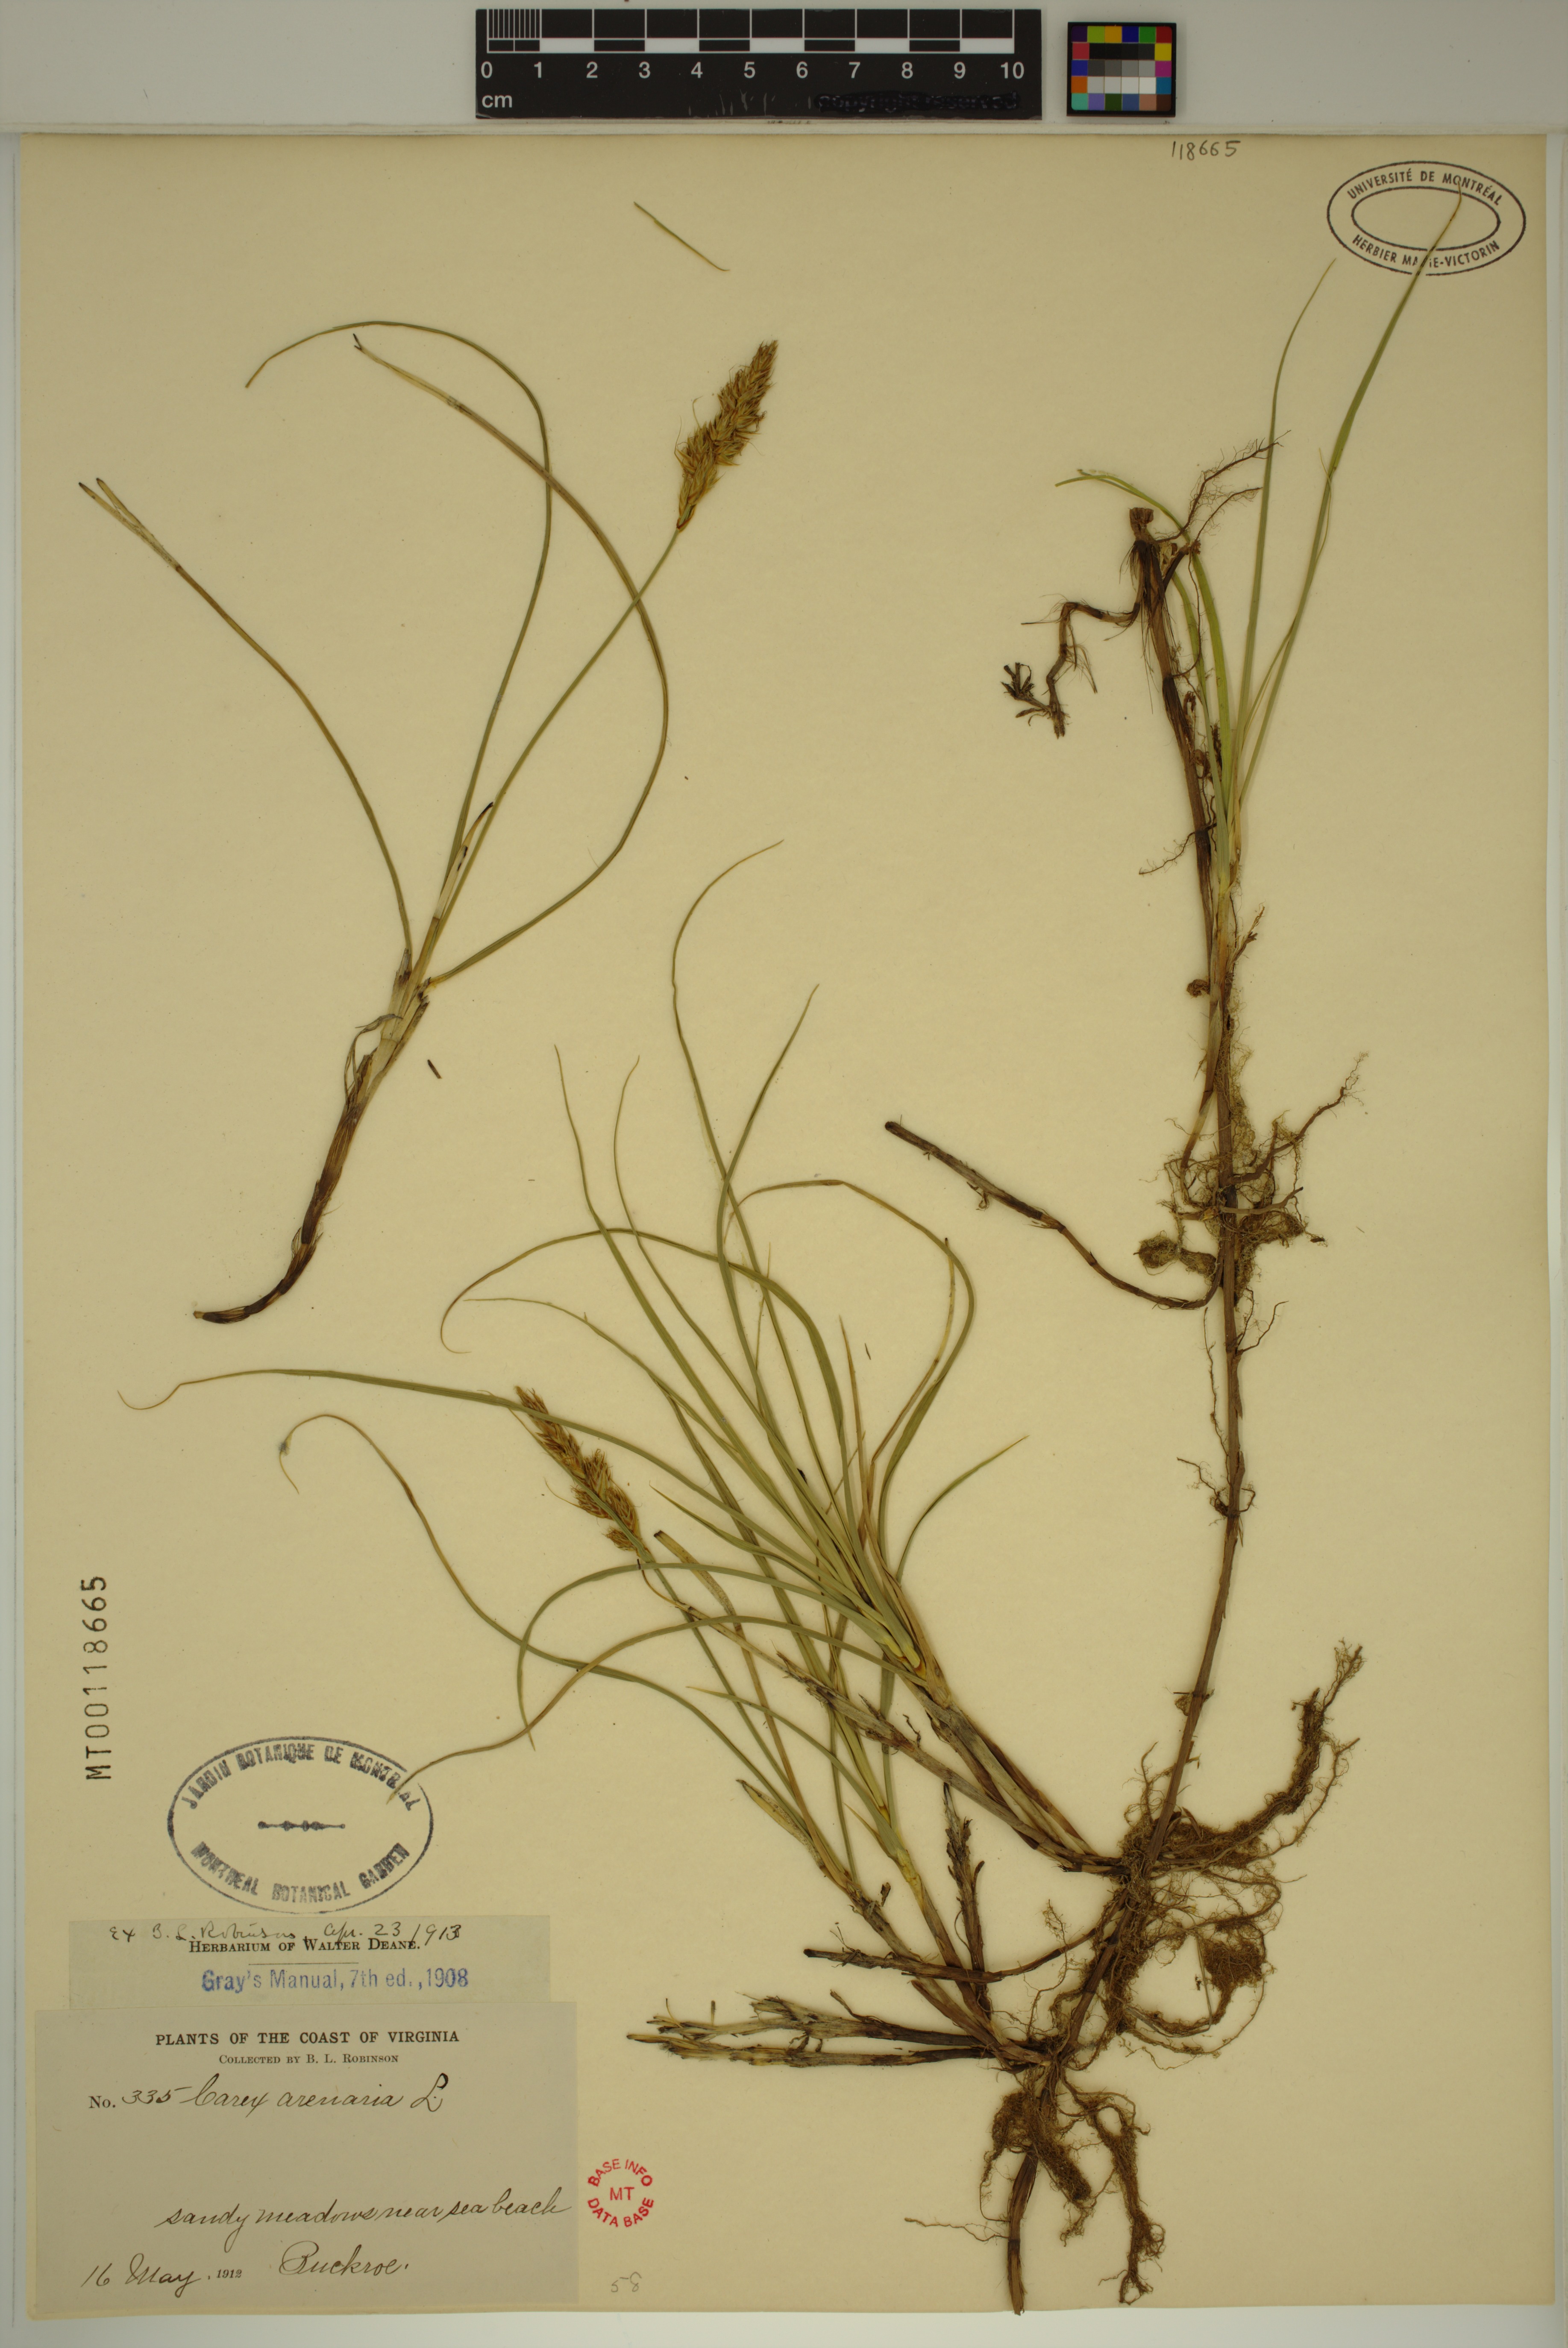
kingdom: Plantae
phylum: Tracheophyta
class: Liliopsida
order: Poales
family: Cyperaceae
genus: Carex
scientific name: Carex arenaria
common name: Sand sedge
